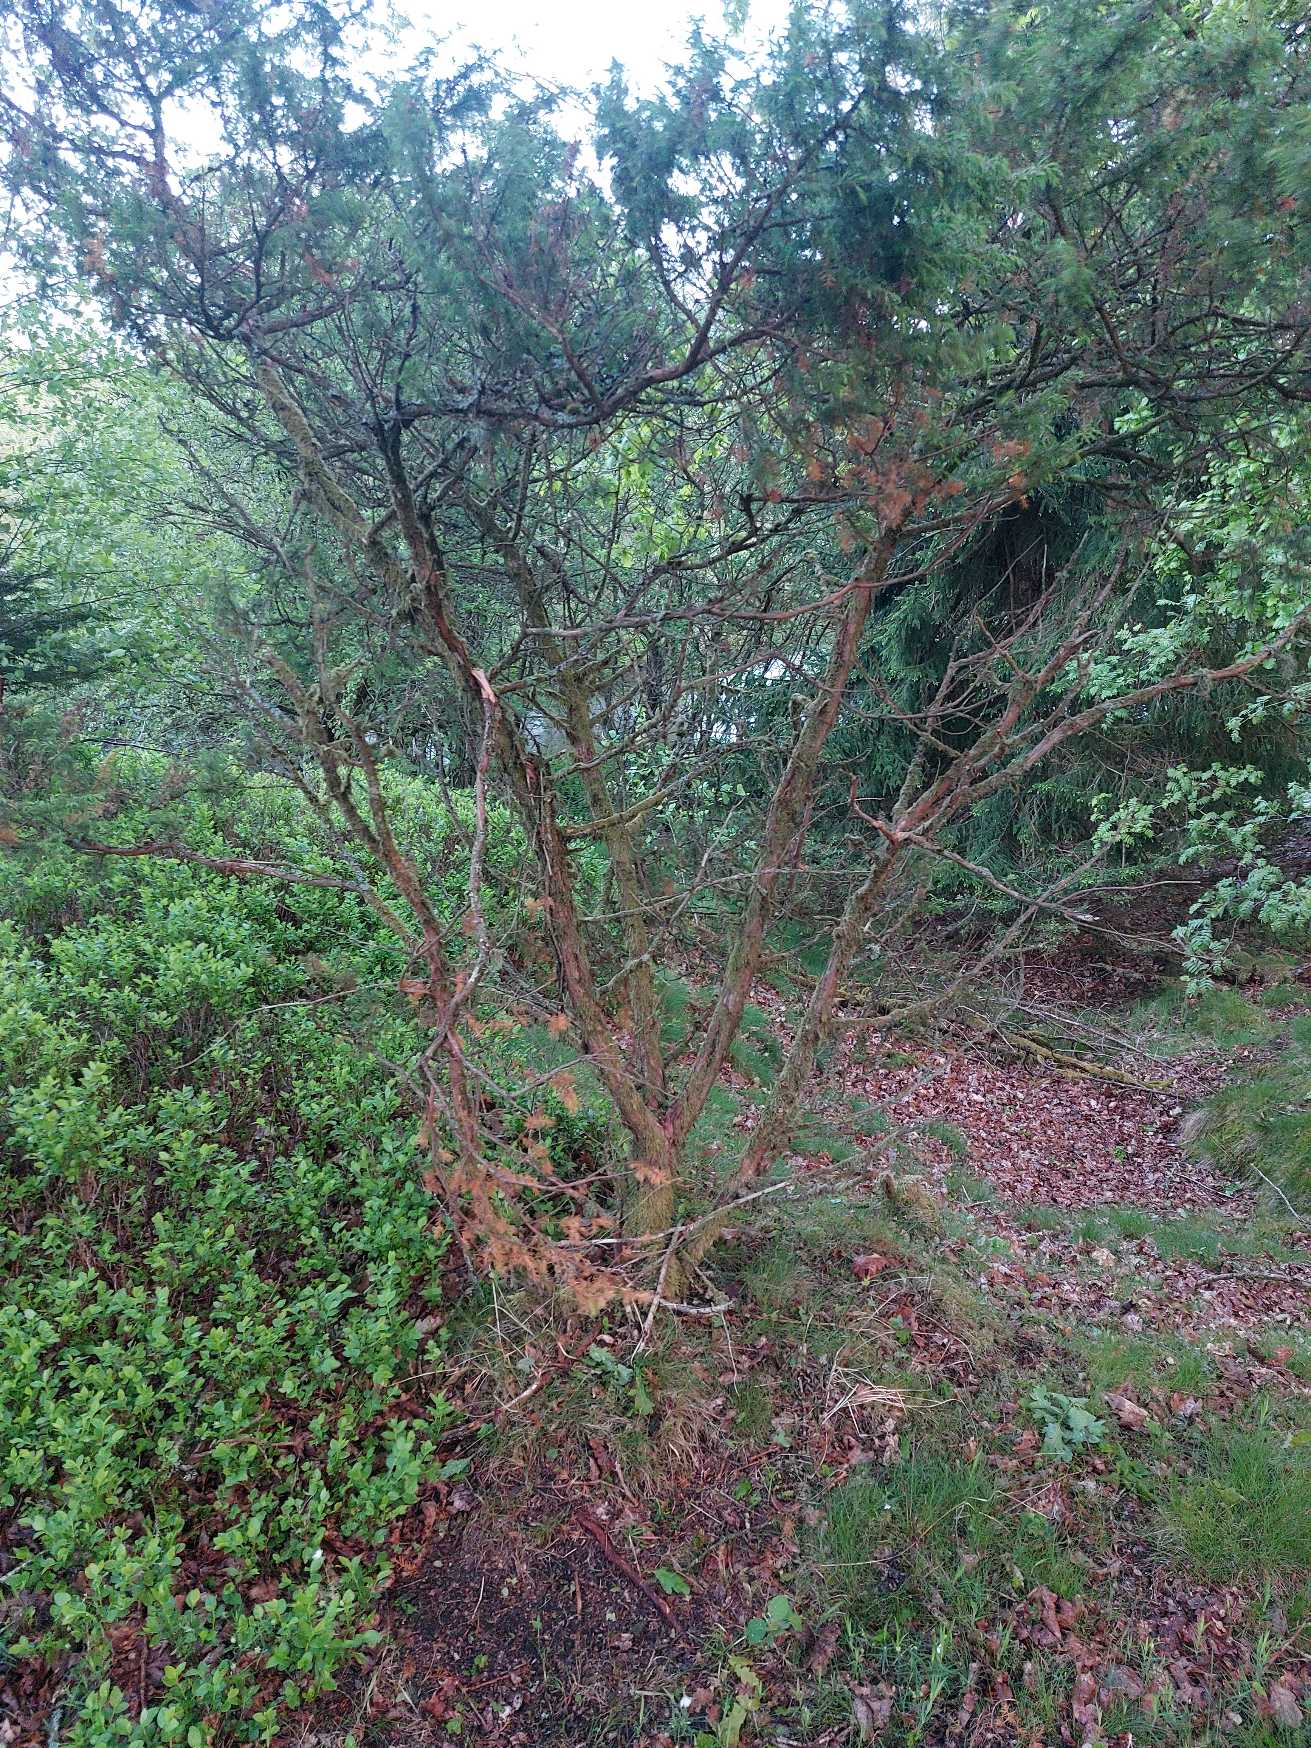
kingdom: Plantae
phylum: Tracheophyta
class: Pinopsida
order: Pinales
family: Cupressaceae
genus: Juniperus
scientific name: Juniperus communis
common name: Almindelig ene
